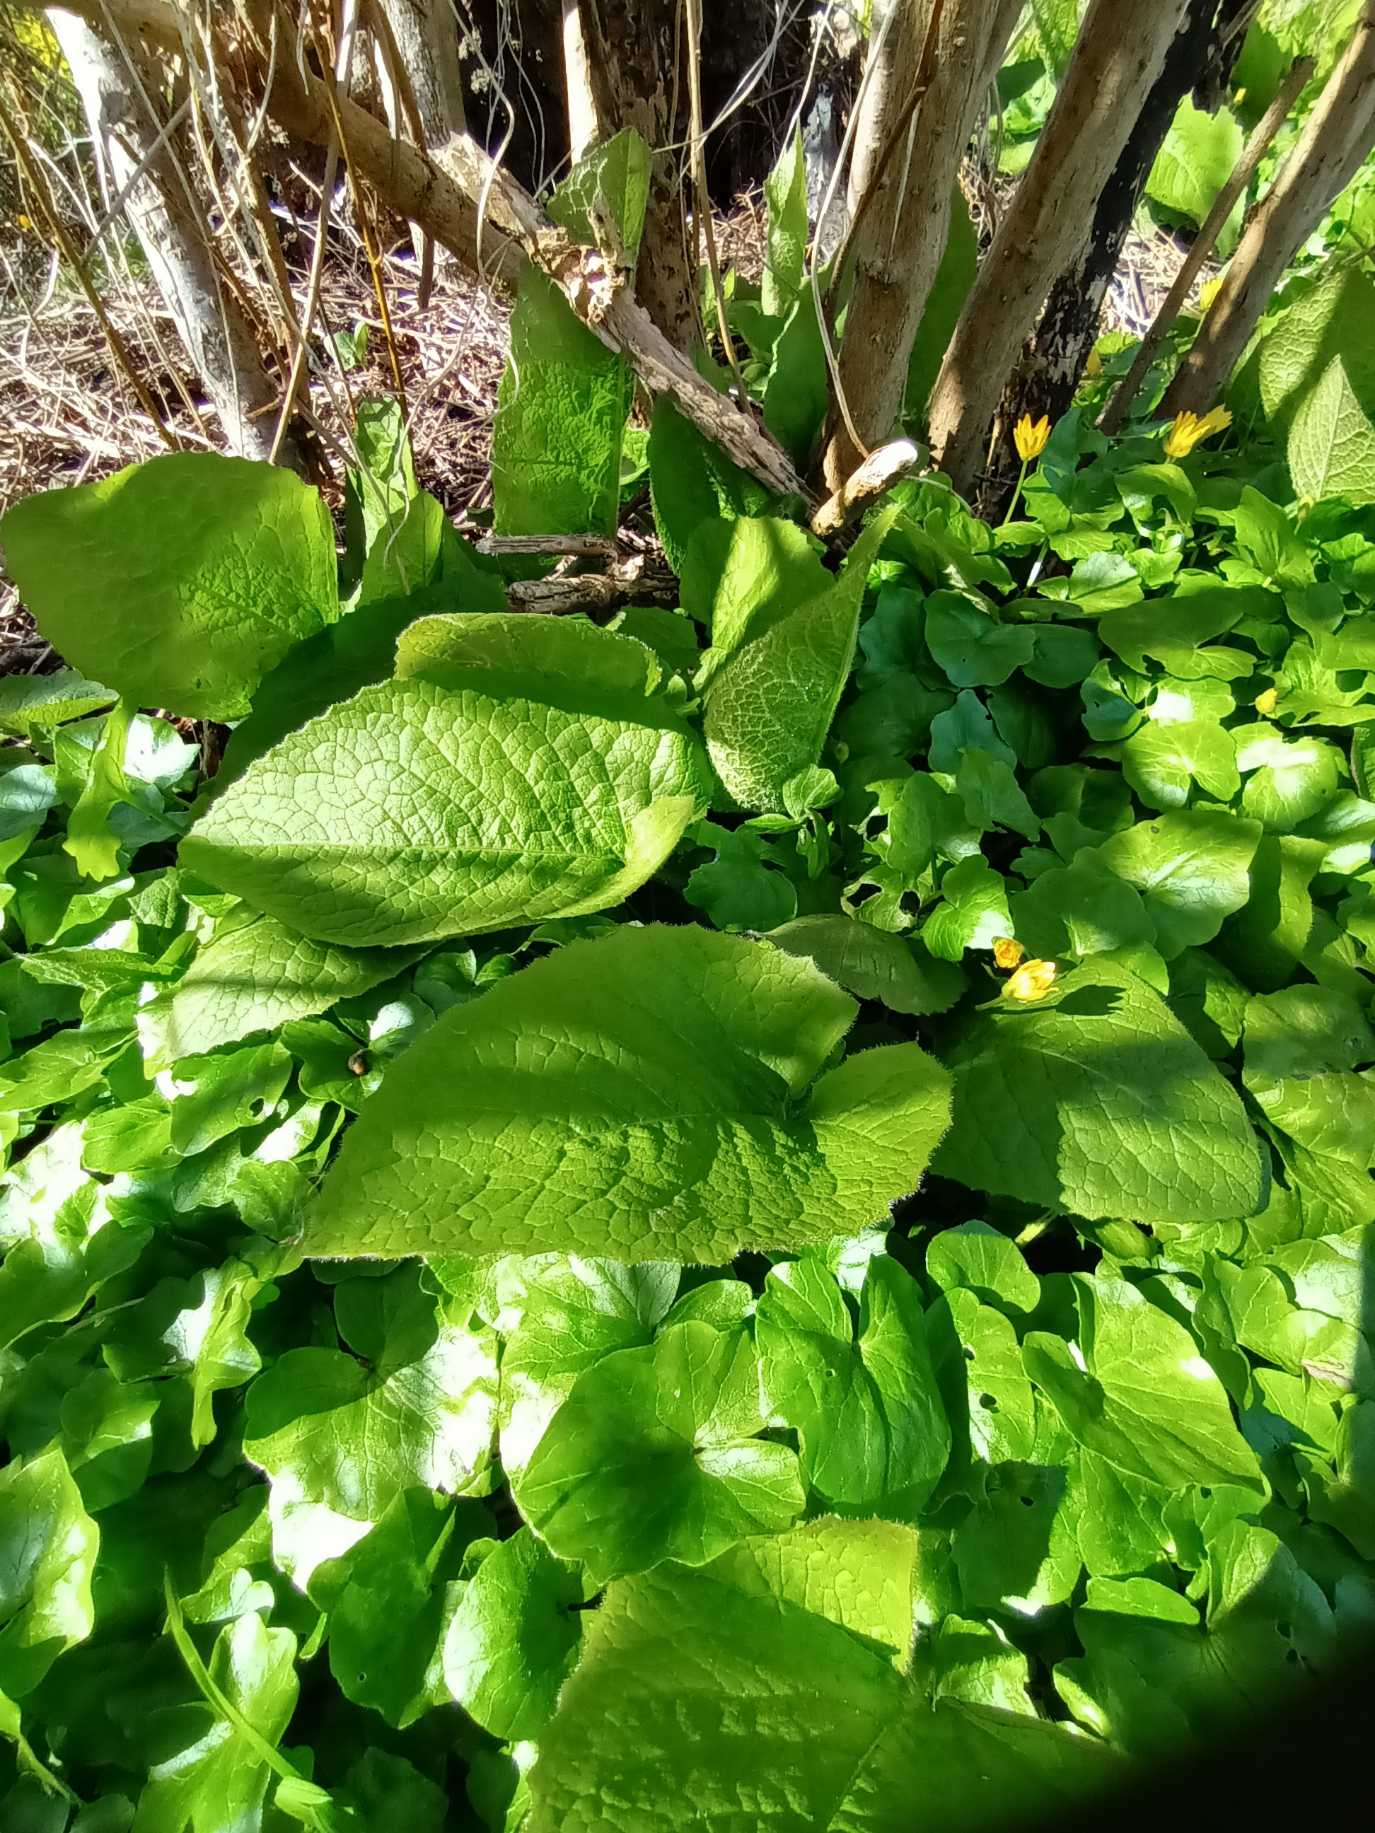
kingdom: Plantae
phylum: Tracheophyta
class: Magnoliopsida
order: Asterales
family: Asteraceae
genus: Lactuca
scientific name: Lactuca macrophylla
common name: Kæmpe-salat
